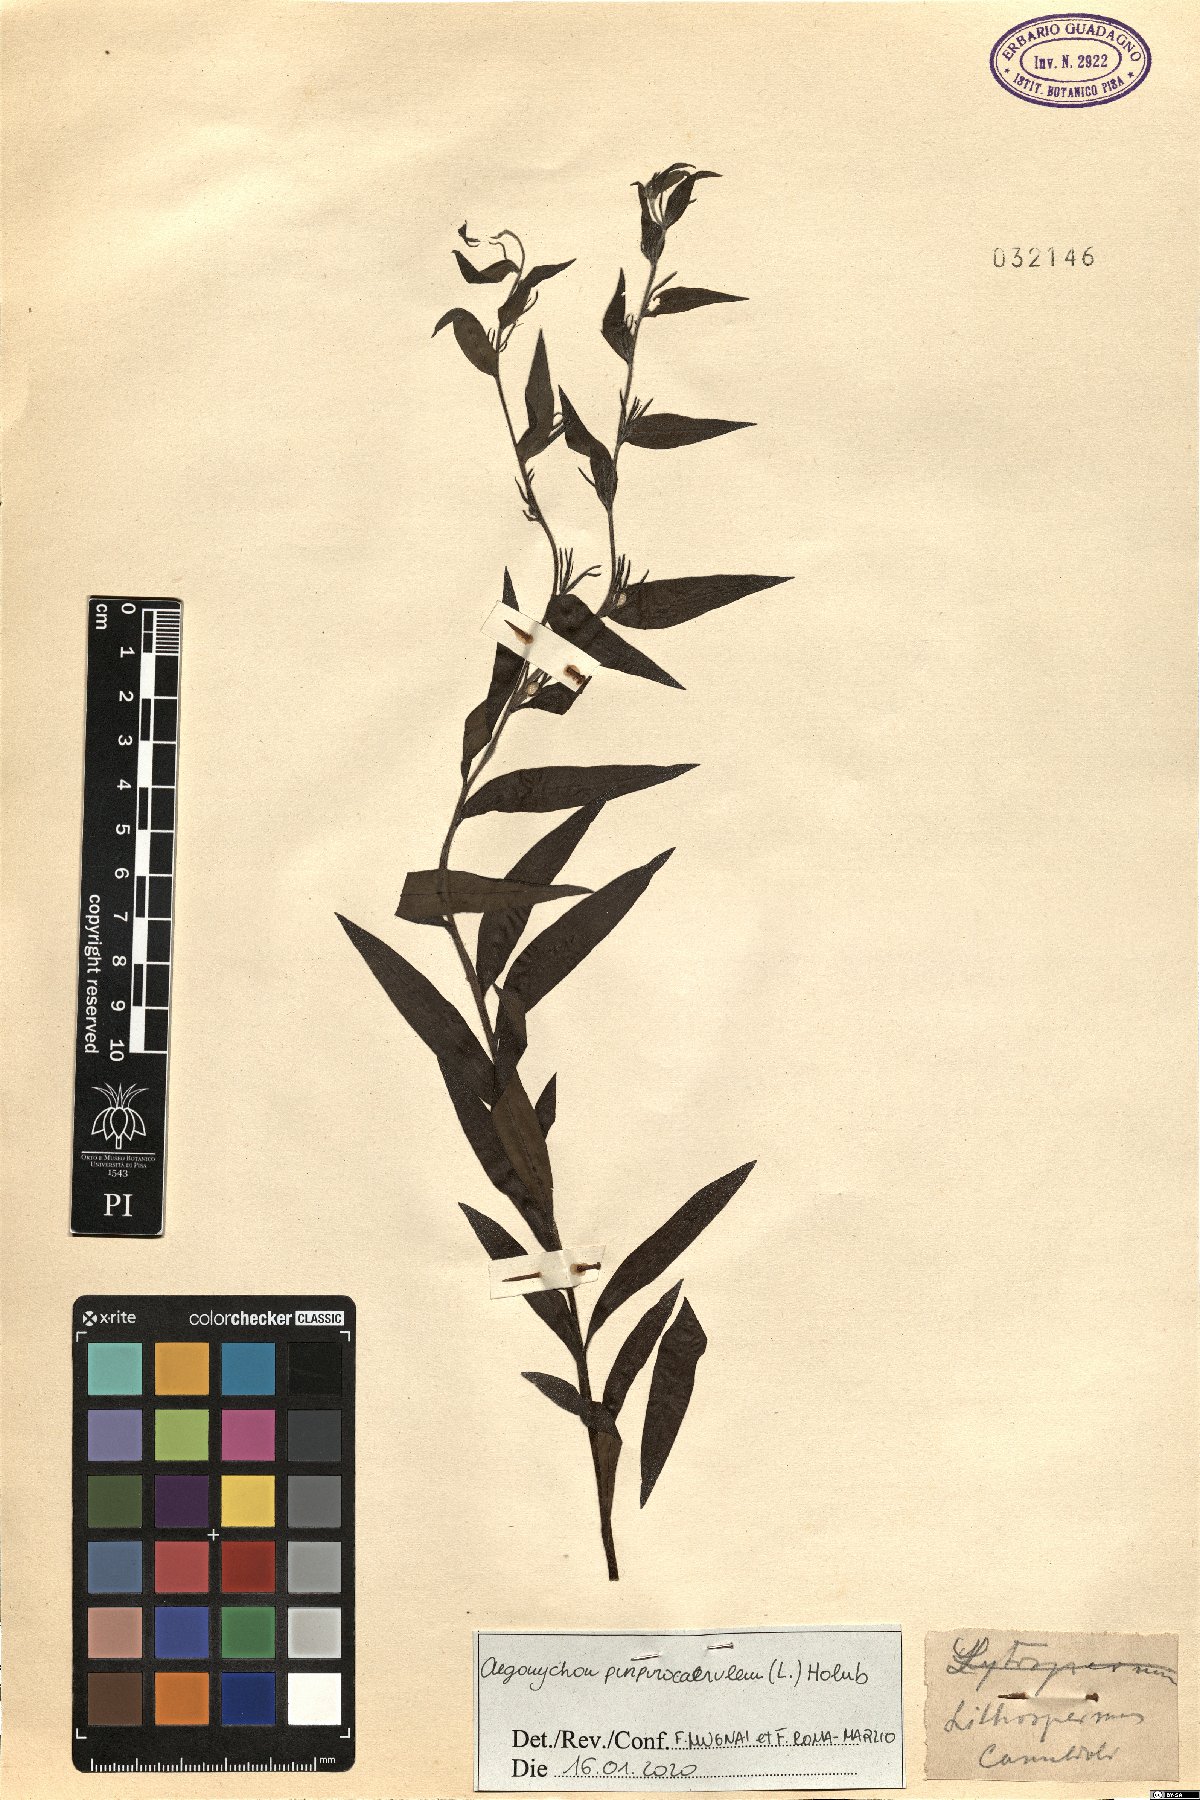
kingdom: Plantae
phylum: Tracheophyta
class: Magnoliopsida
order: Boraginales
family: Boraginaceae
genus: Aegonychon
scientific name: Aegonychon purpurocaeruleum
